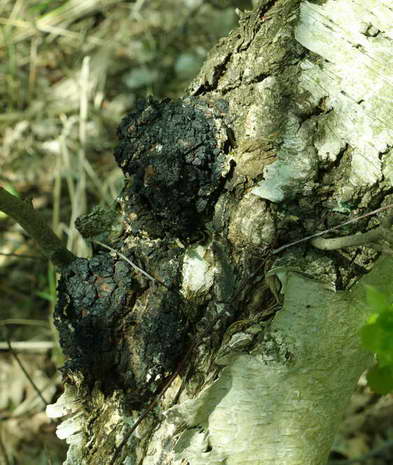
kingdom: Fungi
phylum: Basidiomycota
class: Agaricomycetes
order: Hymenochaetales
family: Hymenochaetaceae
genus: Inonotus
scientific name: Inonotus obliquus
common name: birke-spejlporesvamp
